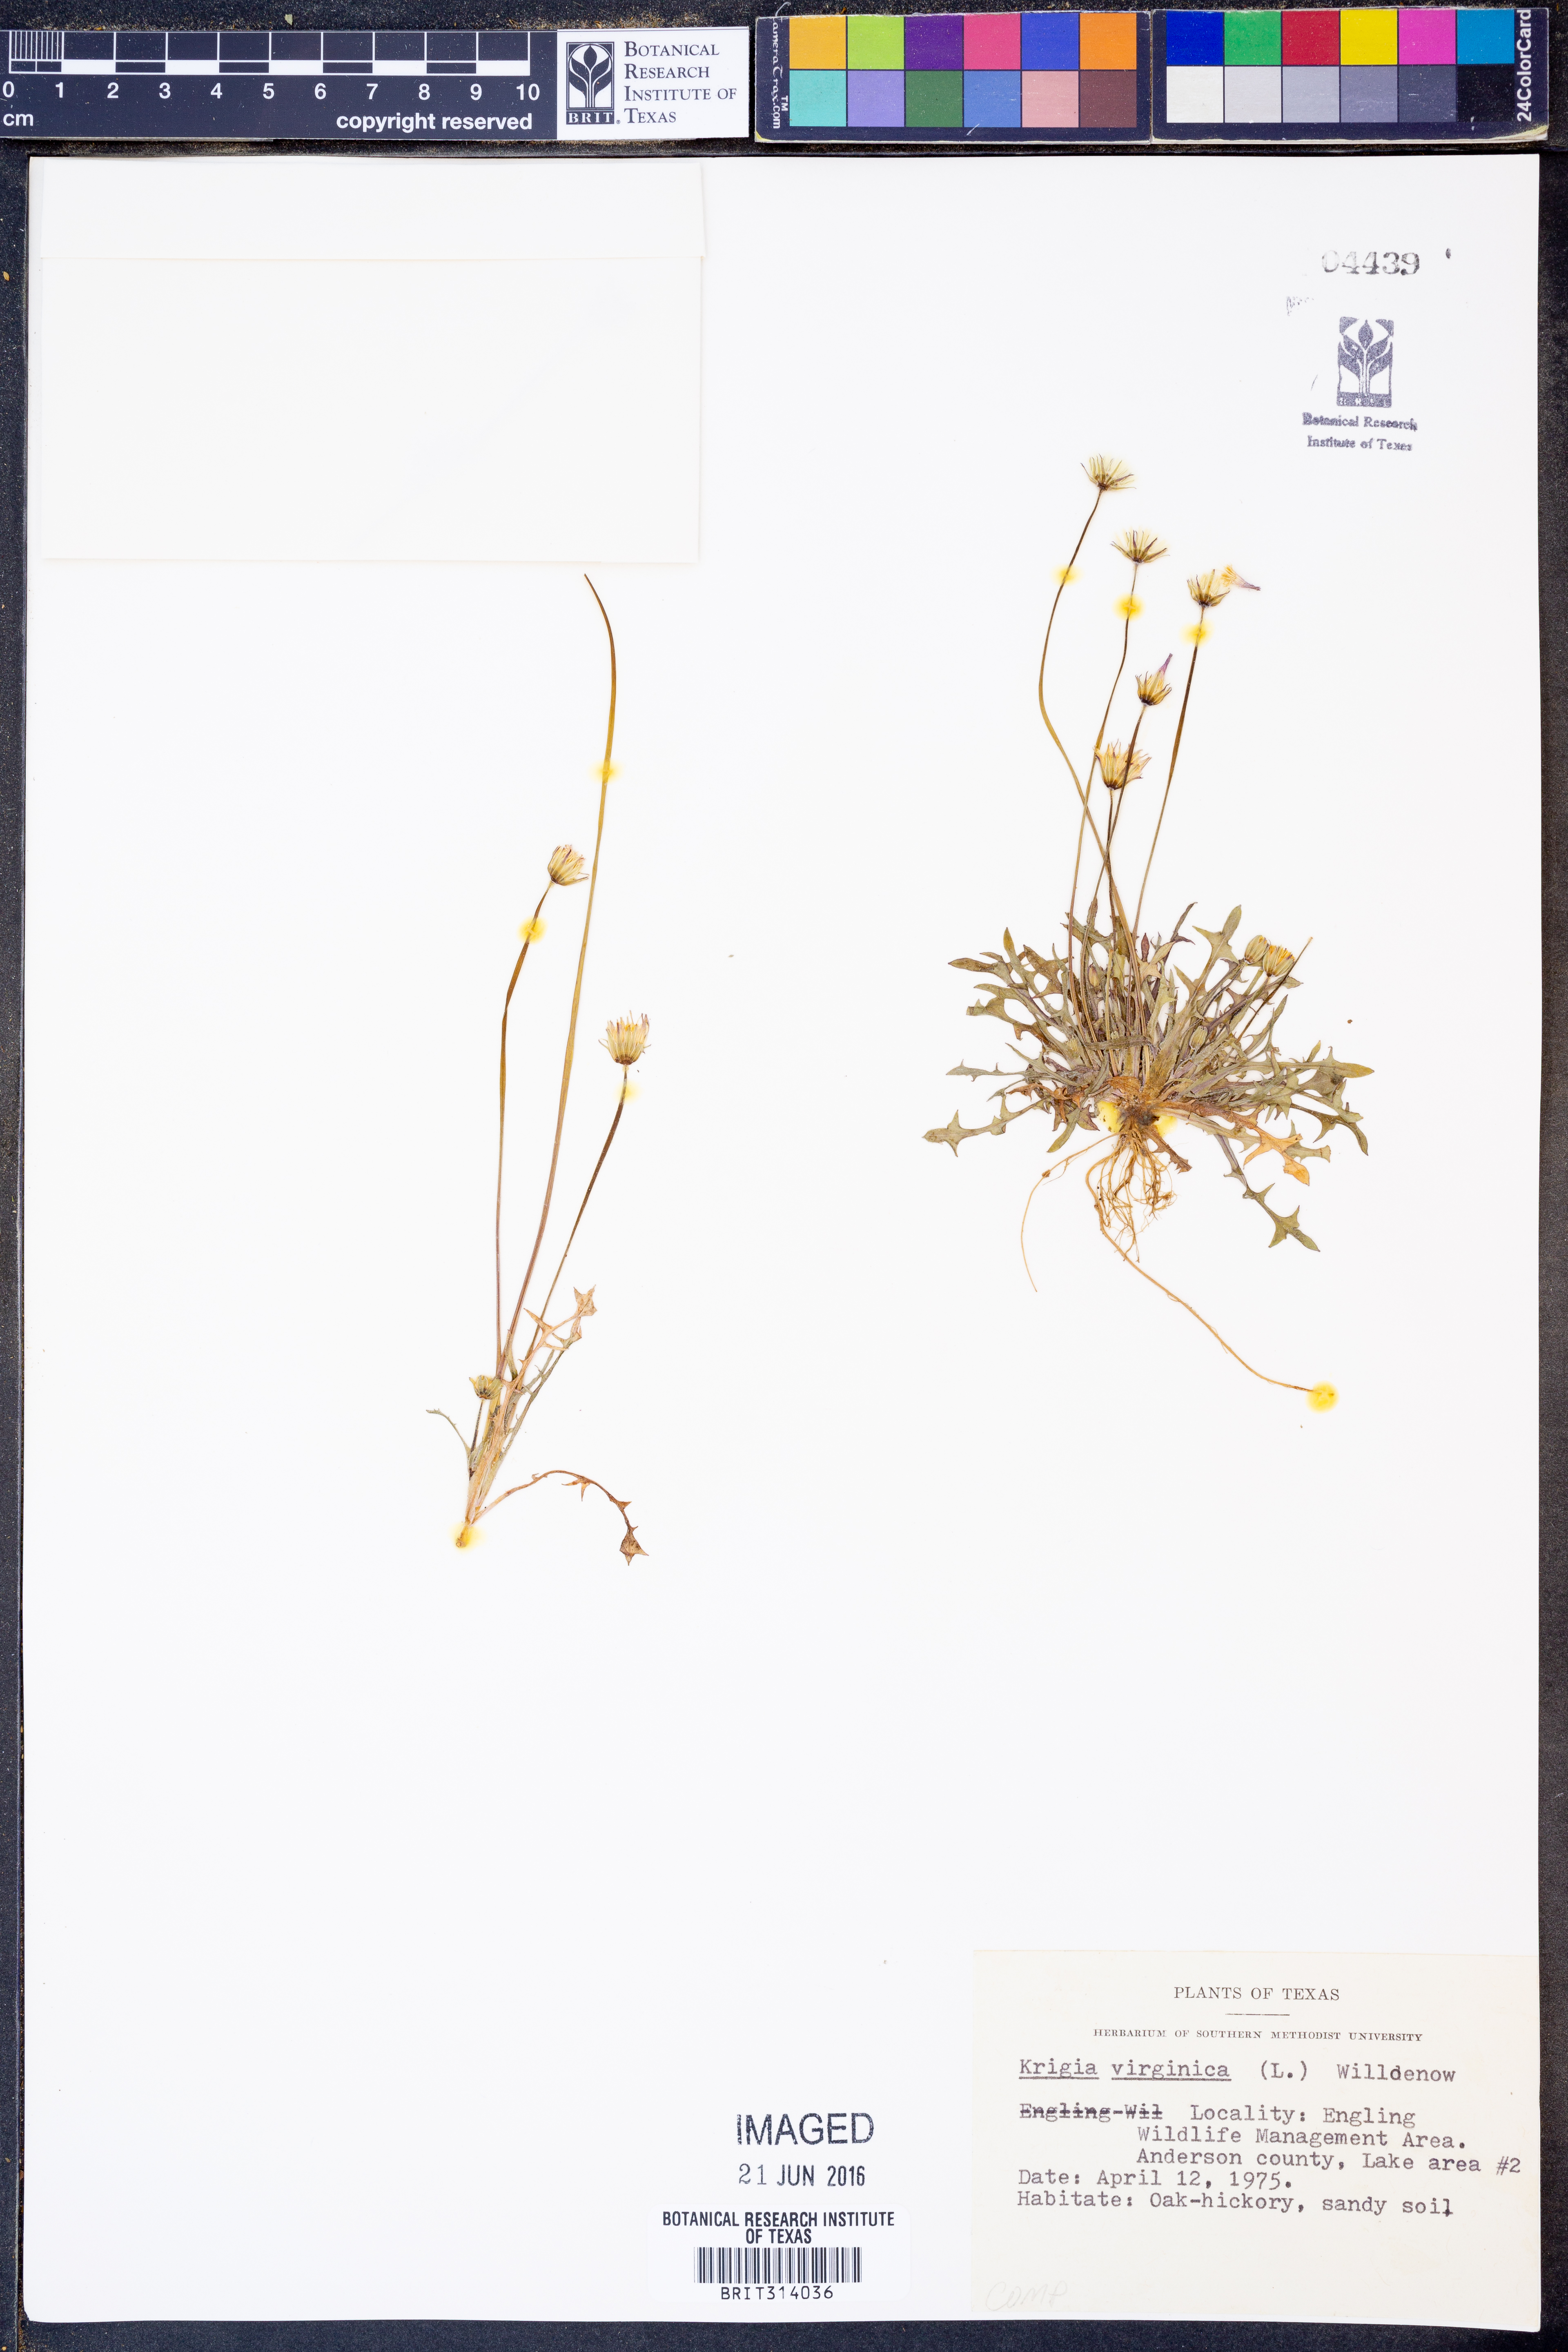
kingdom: Plantae
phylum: Tracheophyta
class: Magnoliopsida
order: Asterales
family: Asteraceae
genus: Krigia
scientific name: Krigia virginica
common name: Virginia dwarf-dandelion
